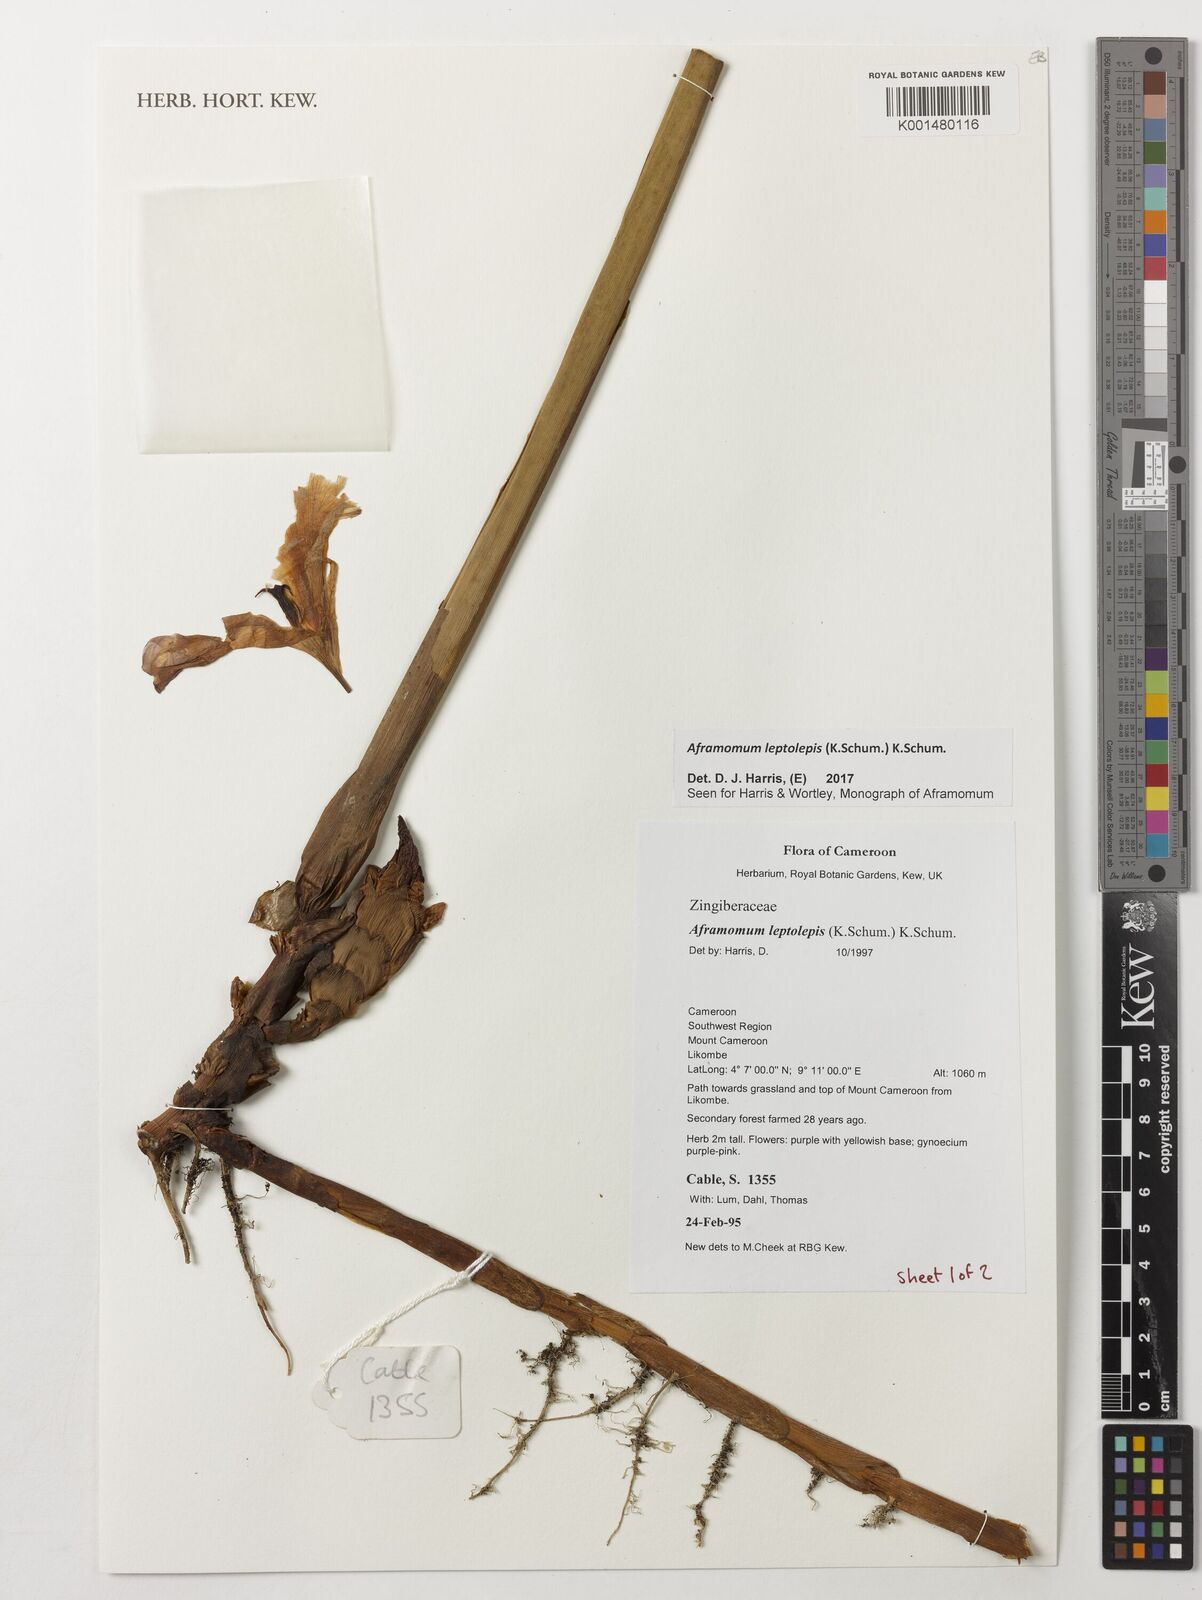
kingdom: Plantae
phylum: Tracheophyta
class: Liliopsida
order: Zingiberales
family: Zingiberaceae
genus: Aframomum
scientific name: Aframomum leptolepis
